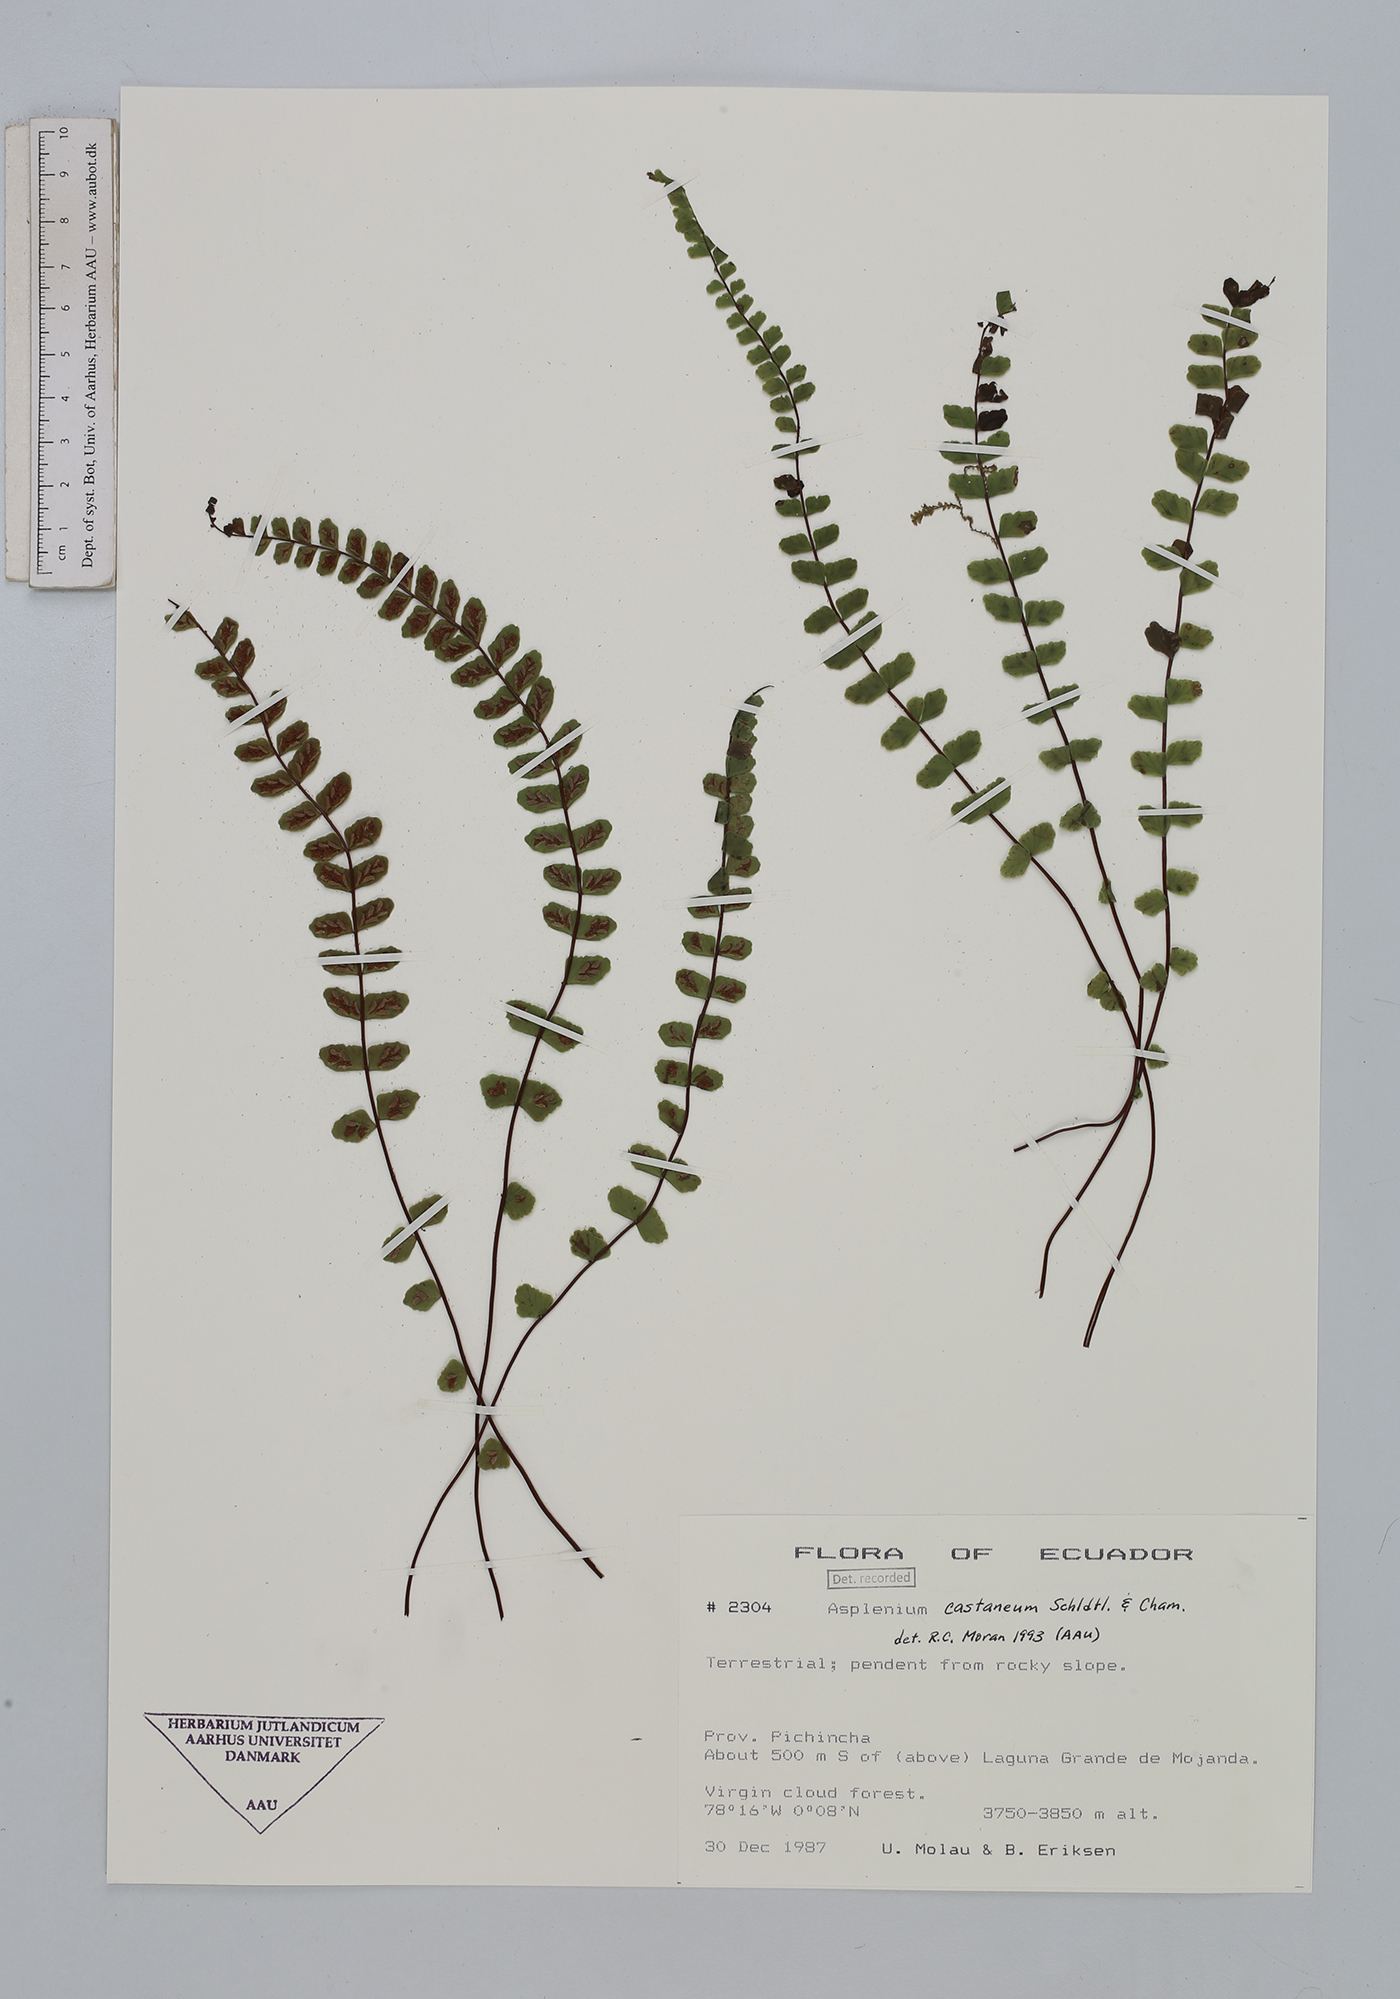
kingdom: Plantae
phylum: Tracheophyta
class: Polypodiopsida
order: Polypodiales
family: Aspleniaceae
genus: Asplenium
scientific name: Asplenium castaneum
